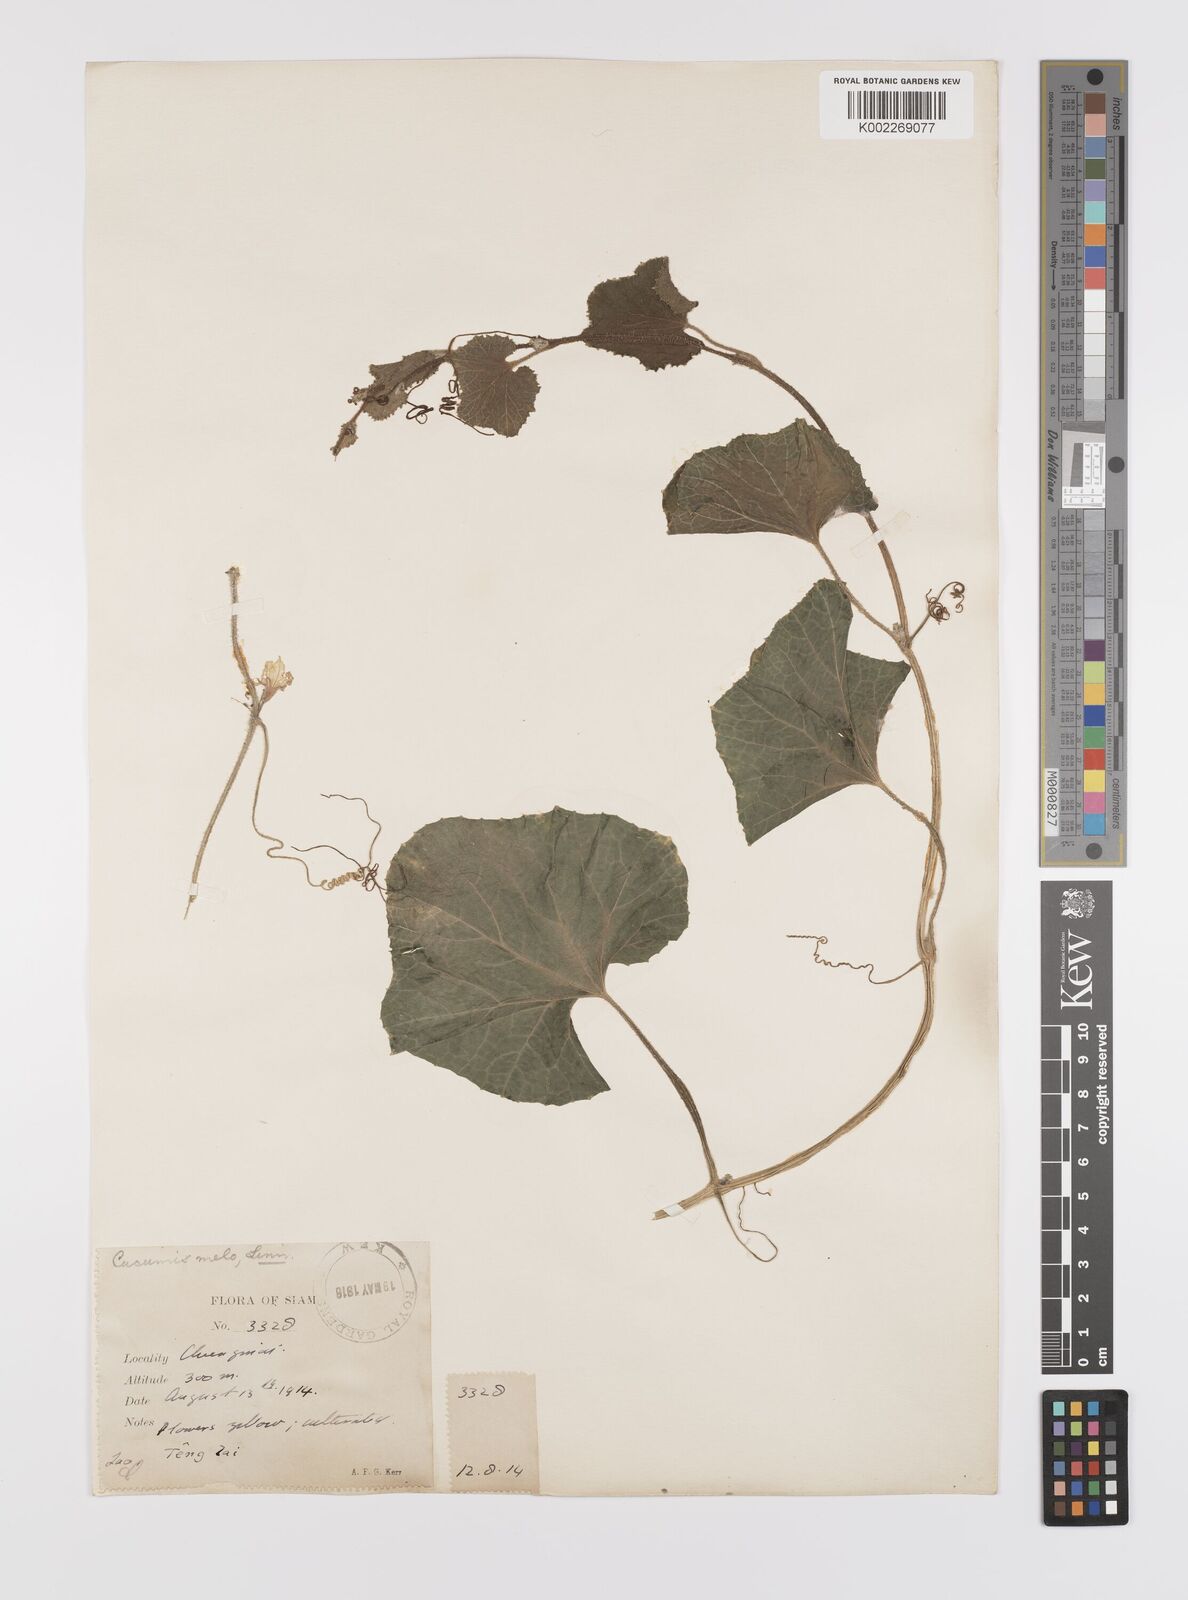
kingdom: Plantae
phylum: Tracheophyta
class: Magnoliopsida
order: Cucurbitales
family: Cucurbitaceae
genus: Cucumis
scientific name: Cucumis melo
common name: Melon
